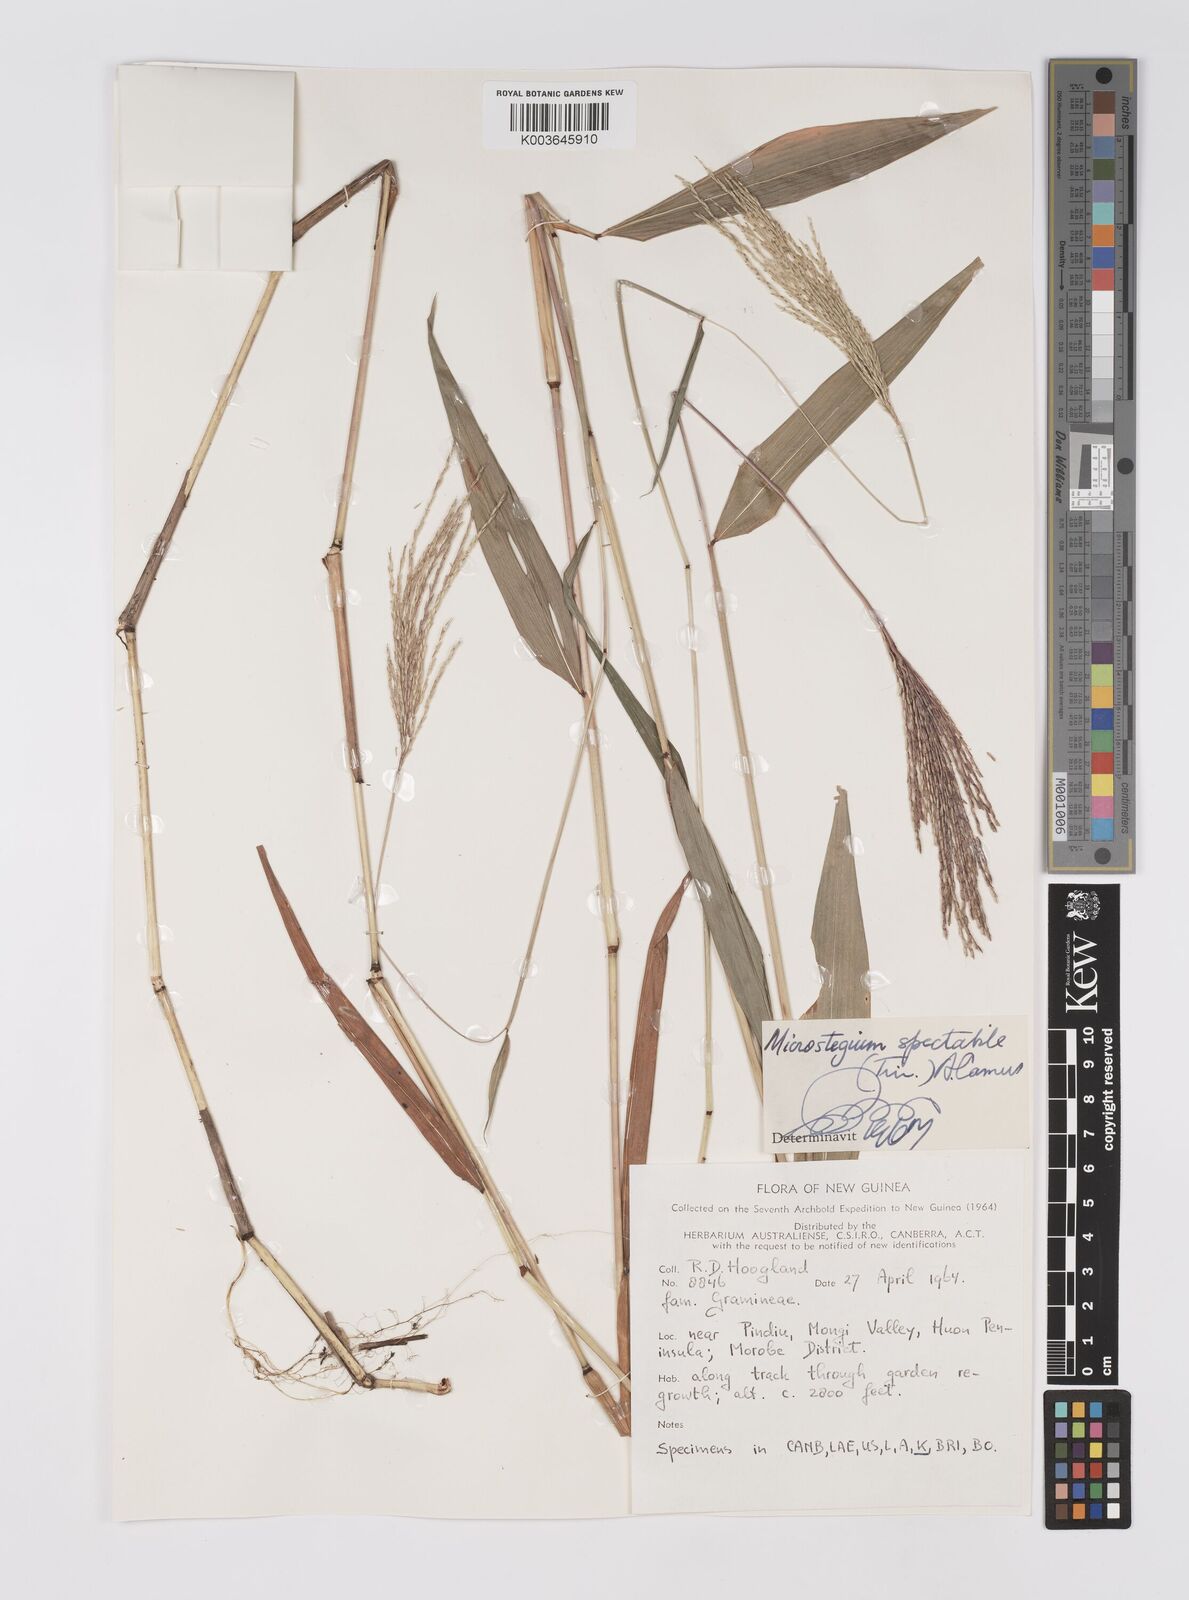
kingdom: Plantae
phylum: Tracheophyta
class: Liliopsida
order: Poales
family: Poaceae
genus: Microstegium
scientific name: Microstegium spectabile
